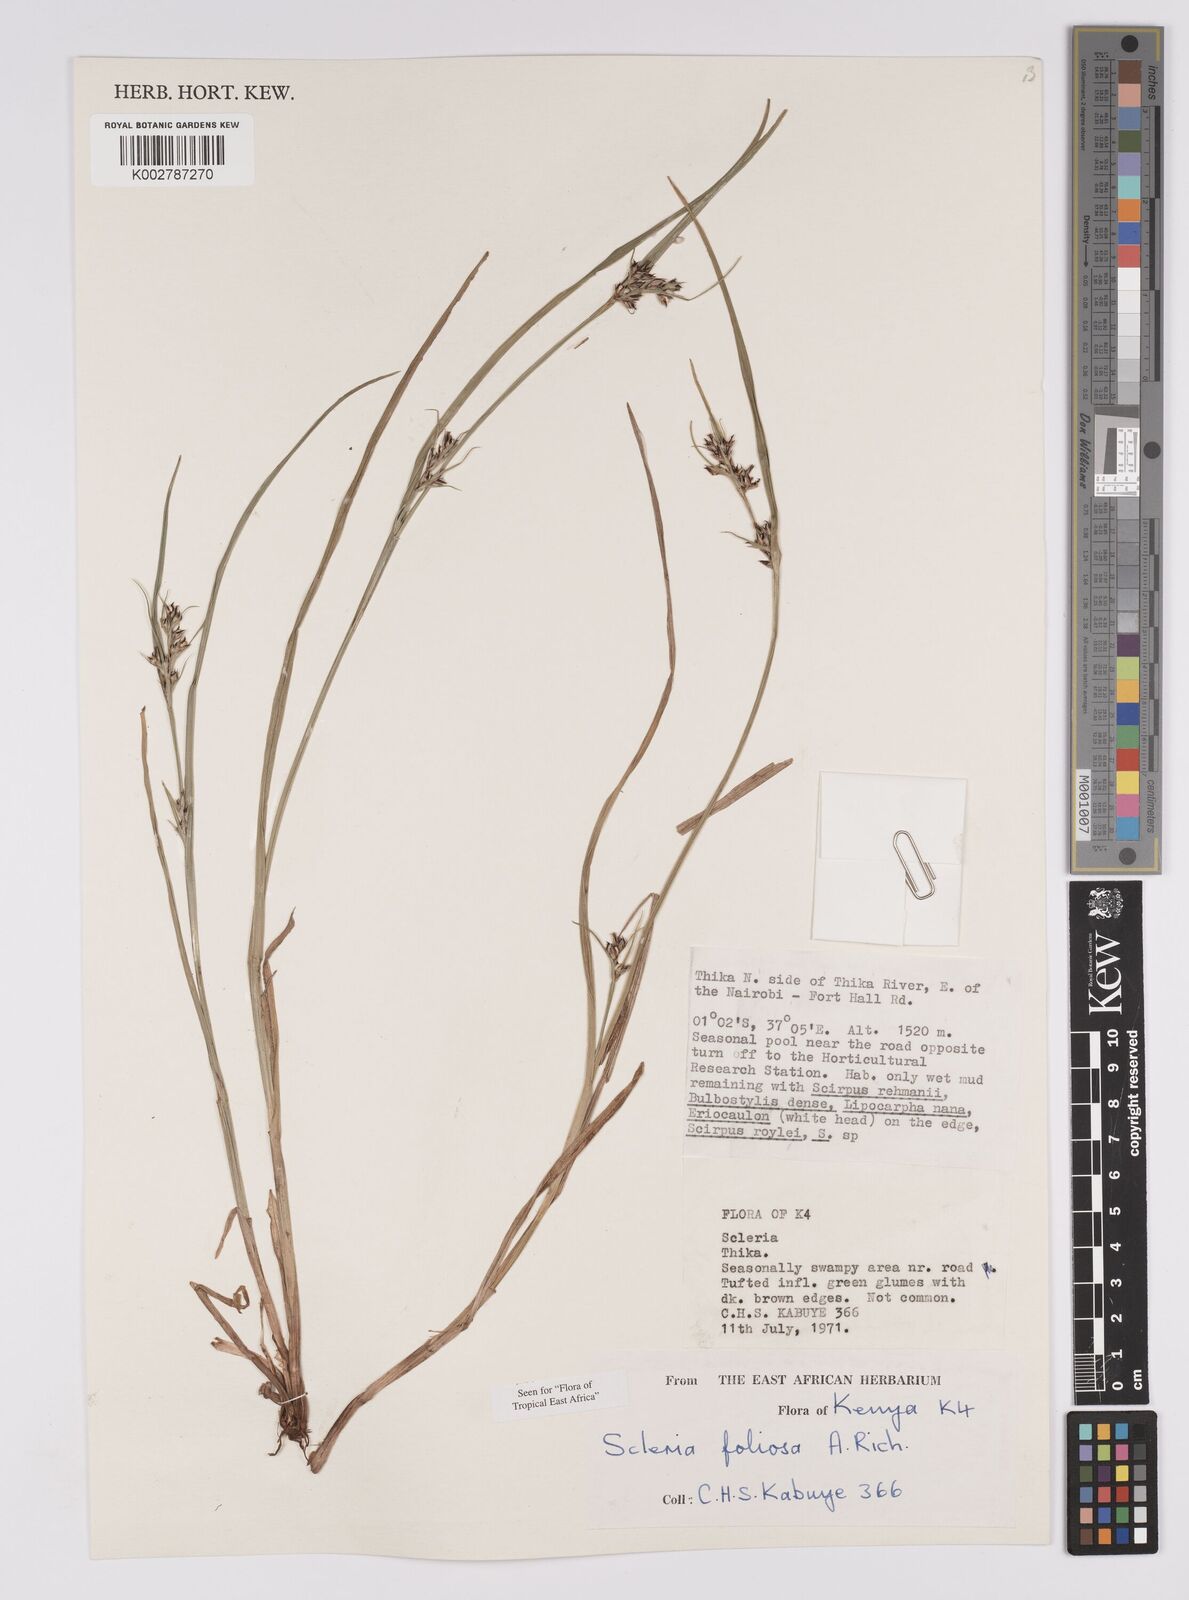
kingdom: Plantae
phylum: Tracheophyta
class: Liliopsida
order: Poales
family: Cyperaceae
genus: Scleria
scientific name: Scleria foliosa
